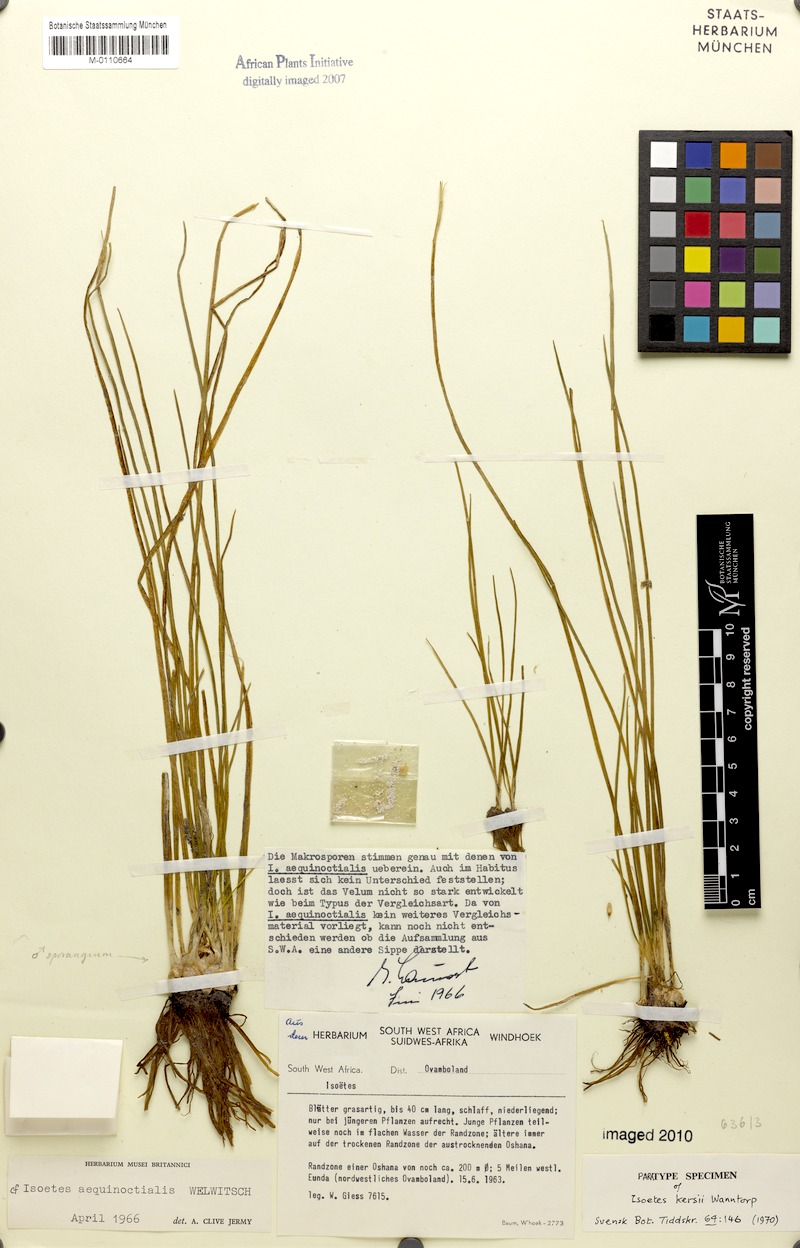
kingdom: Plantae
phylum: Tracheophyta
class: Lycopodiopsida
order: Isoetales
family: Isoetaceae
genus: Isoetes
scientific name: Isoetes schweinfurthii
